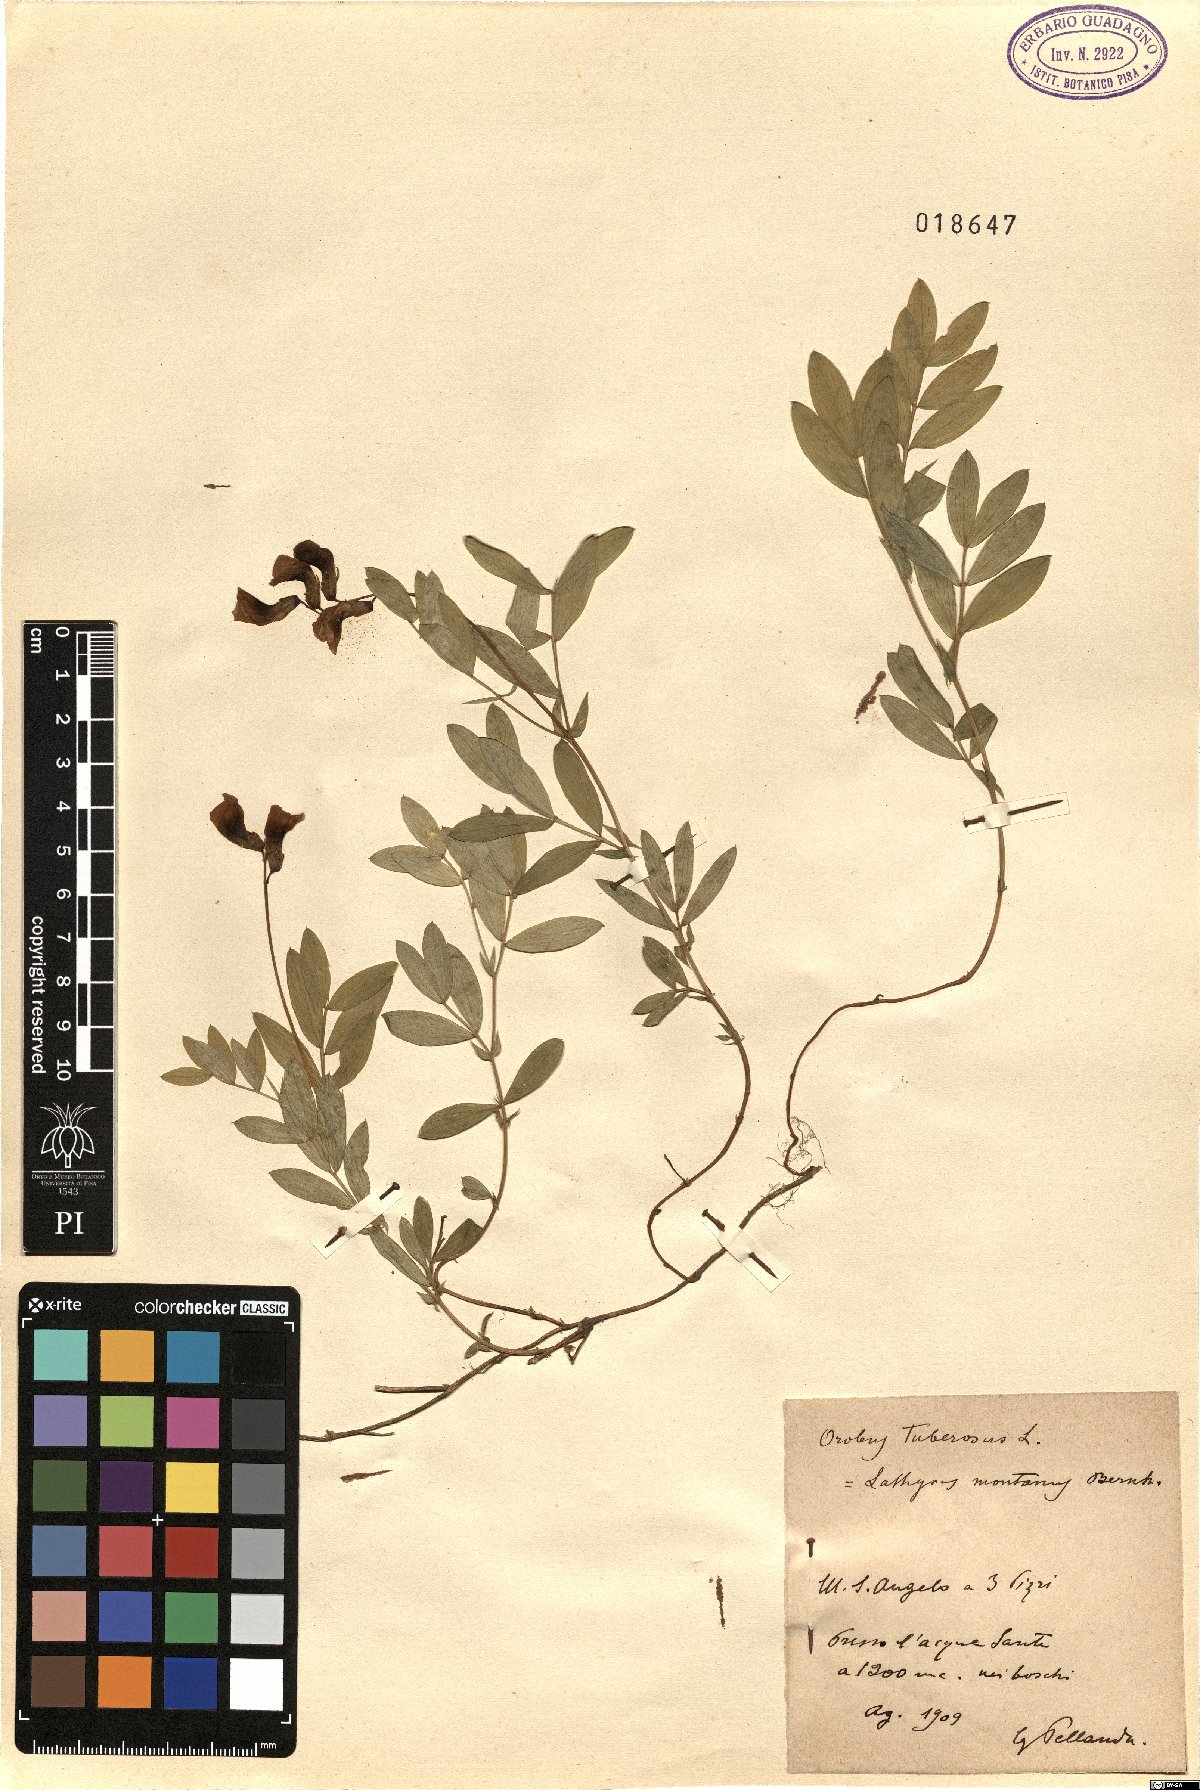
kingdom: Plantae
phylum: Tracheophyta
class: Magnoliopsida
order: Fabales
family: Fabaceae
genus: Lathyrus
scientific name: Lathyrus linifolius
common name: Bitter-vetch
